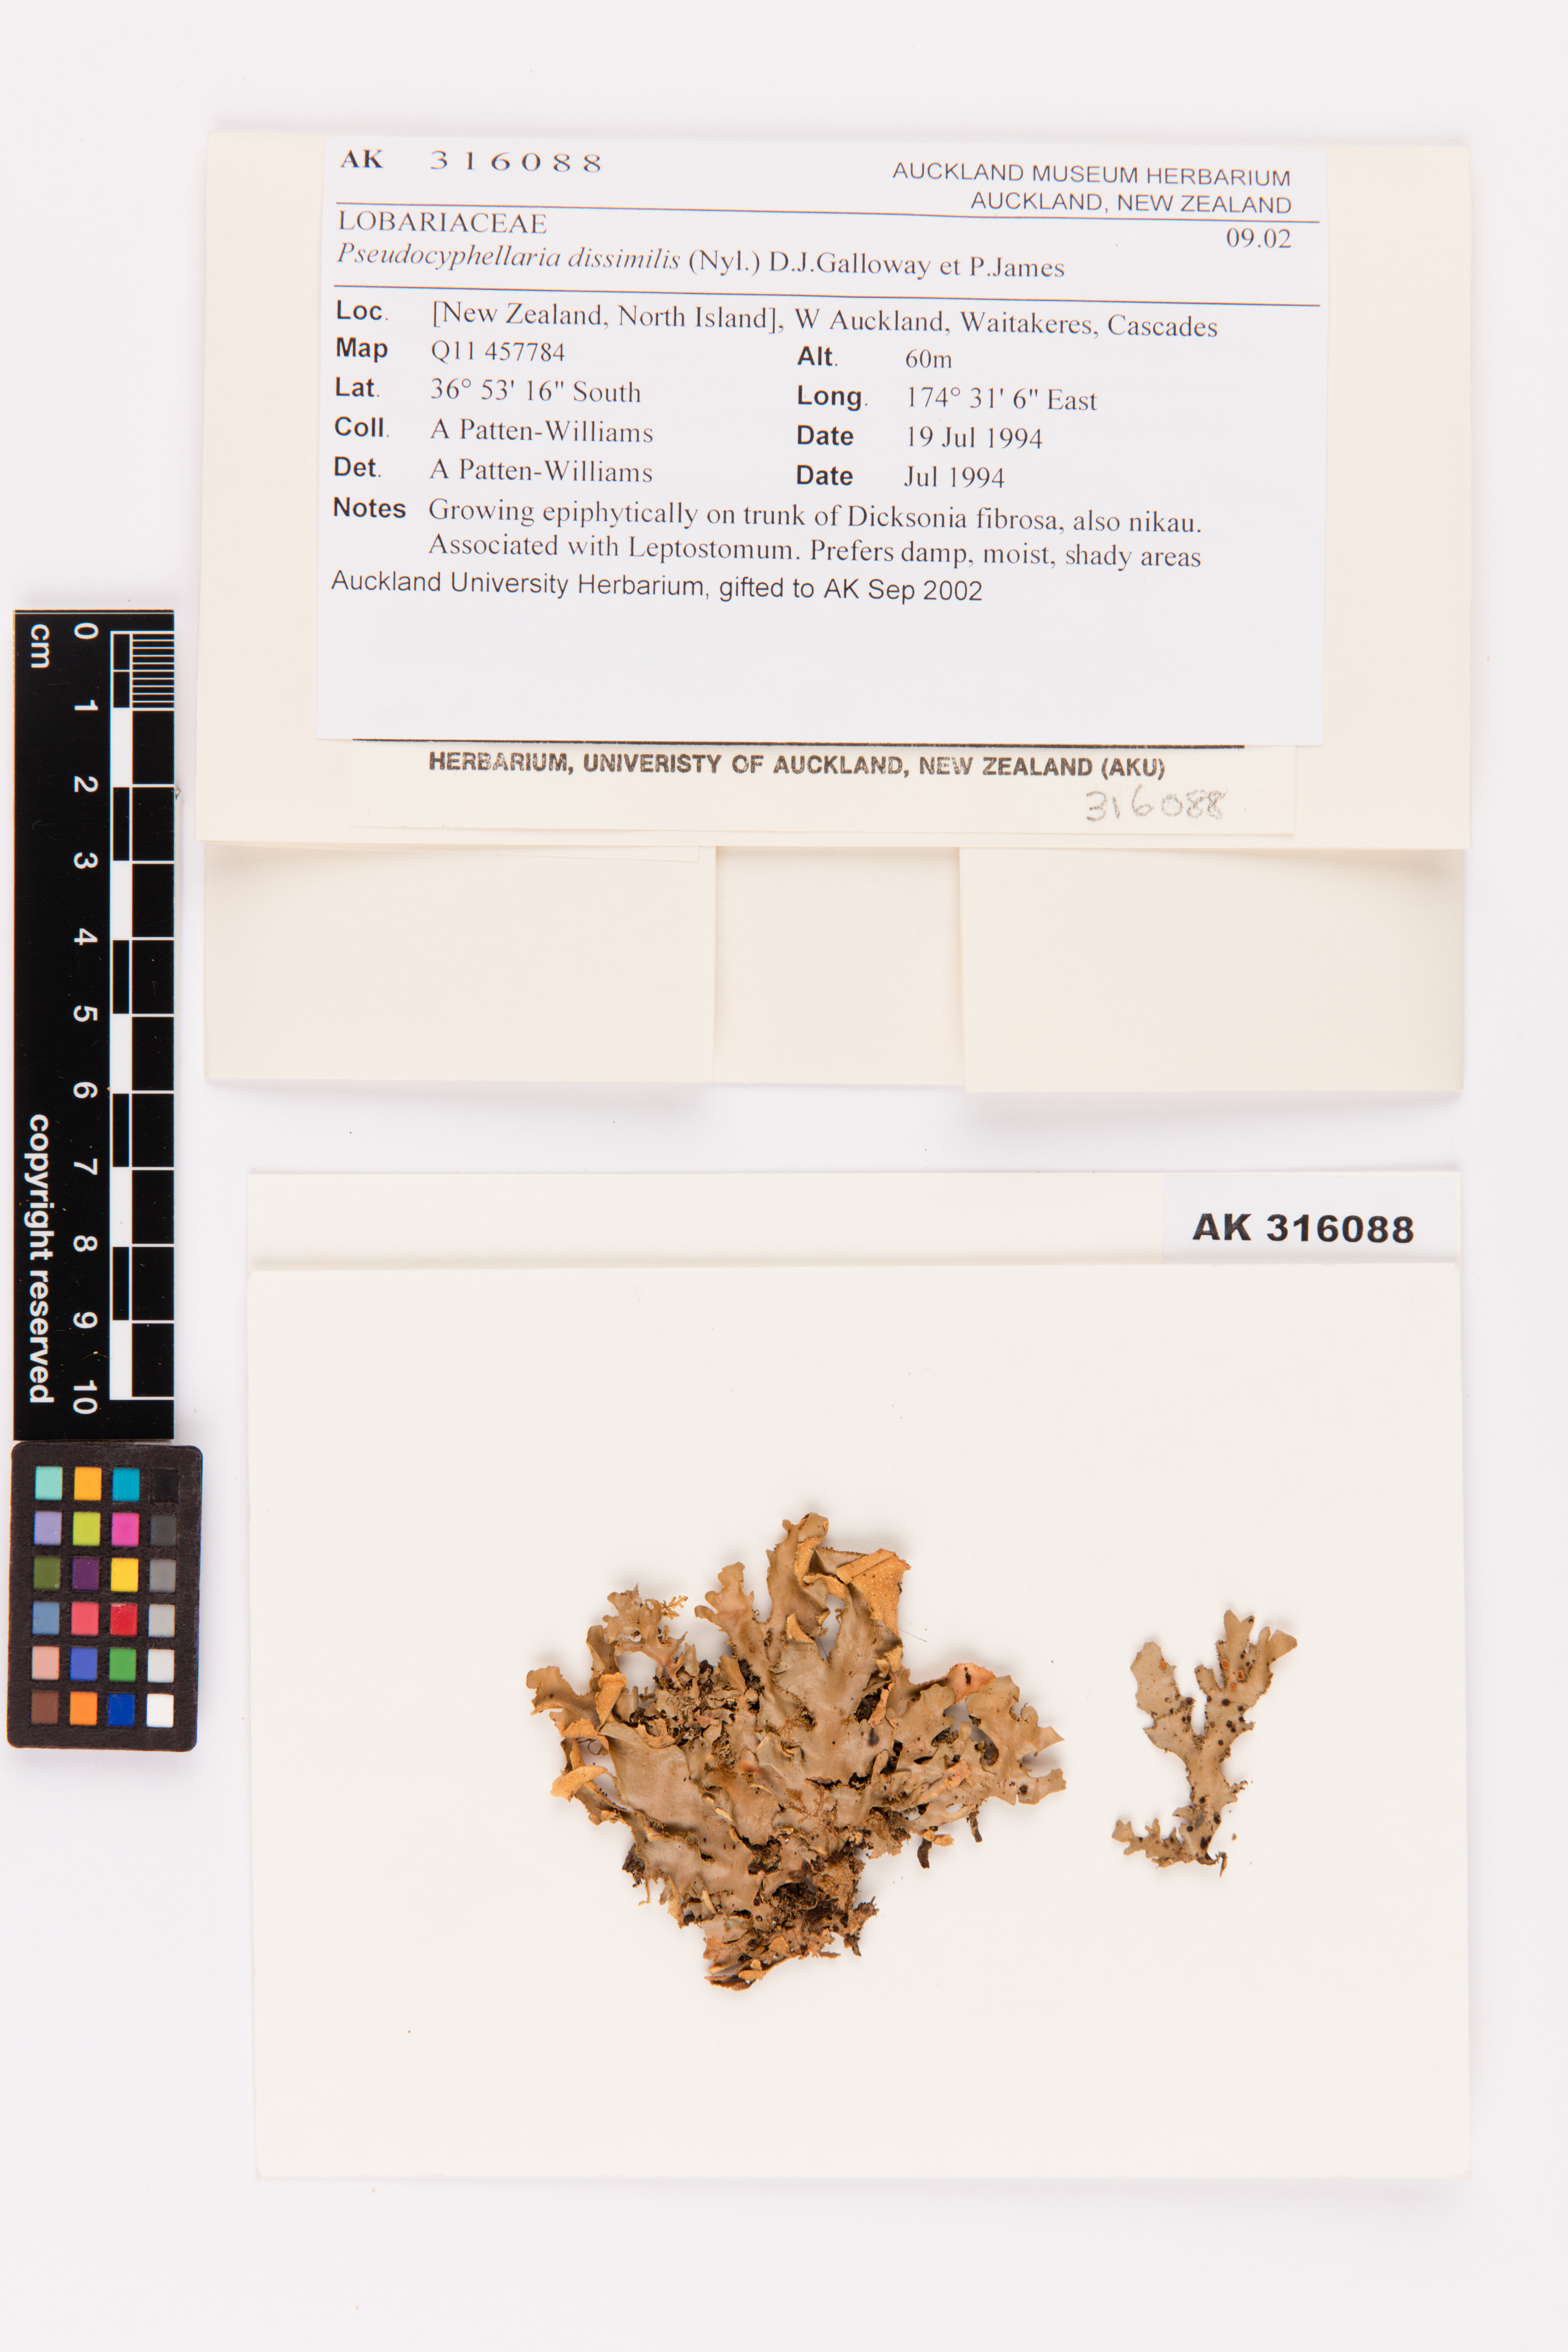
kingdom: Fungi
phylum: Ascomycota
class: Lecanoromycetes
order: Peltigerales
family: Lobariaceae
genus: Pseudocyphellaria
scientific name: Pseudocyphellaria dissimilis
